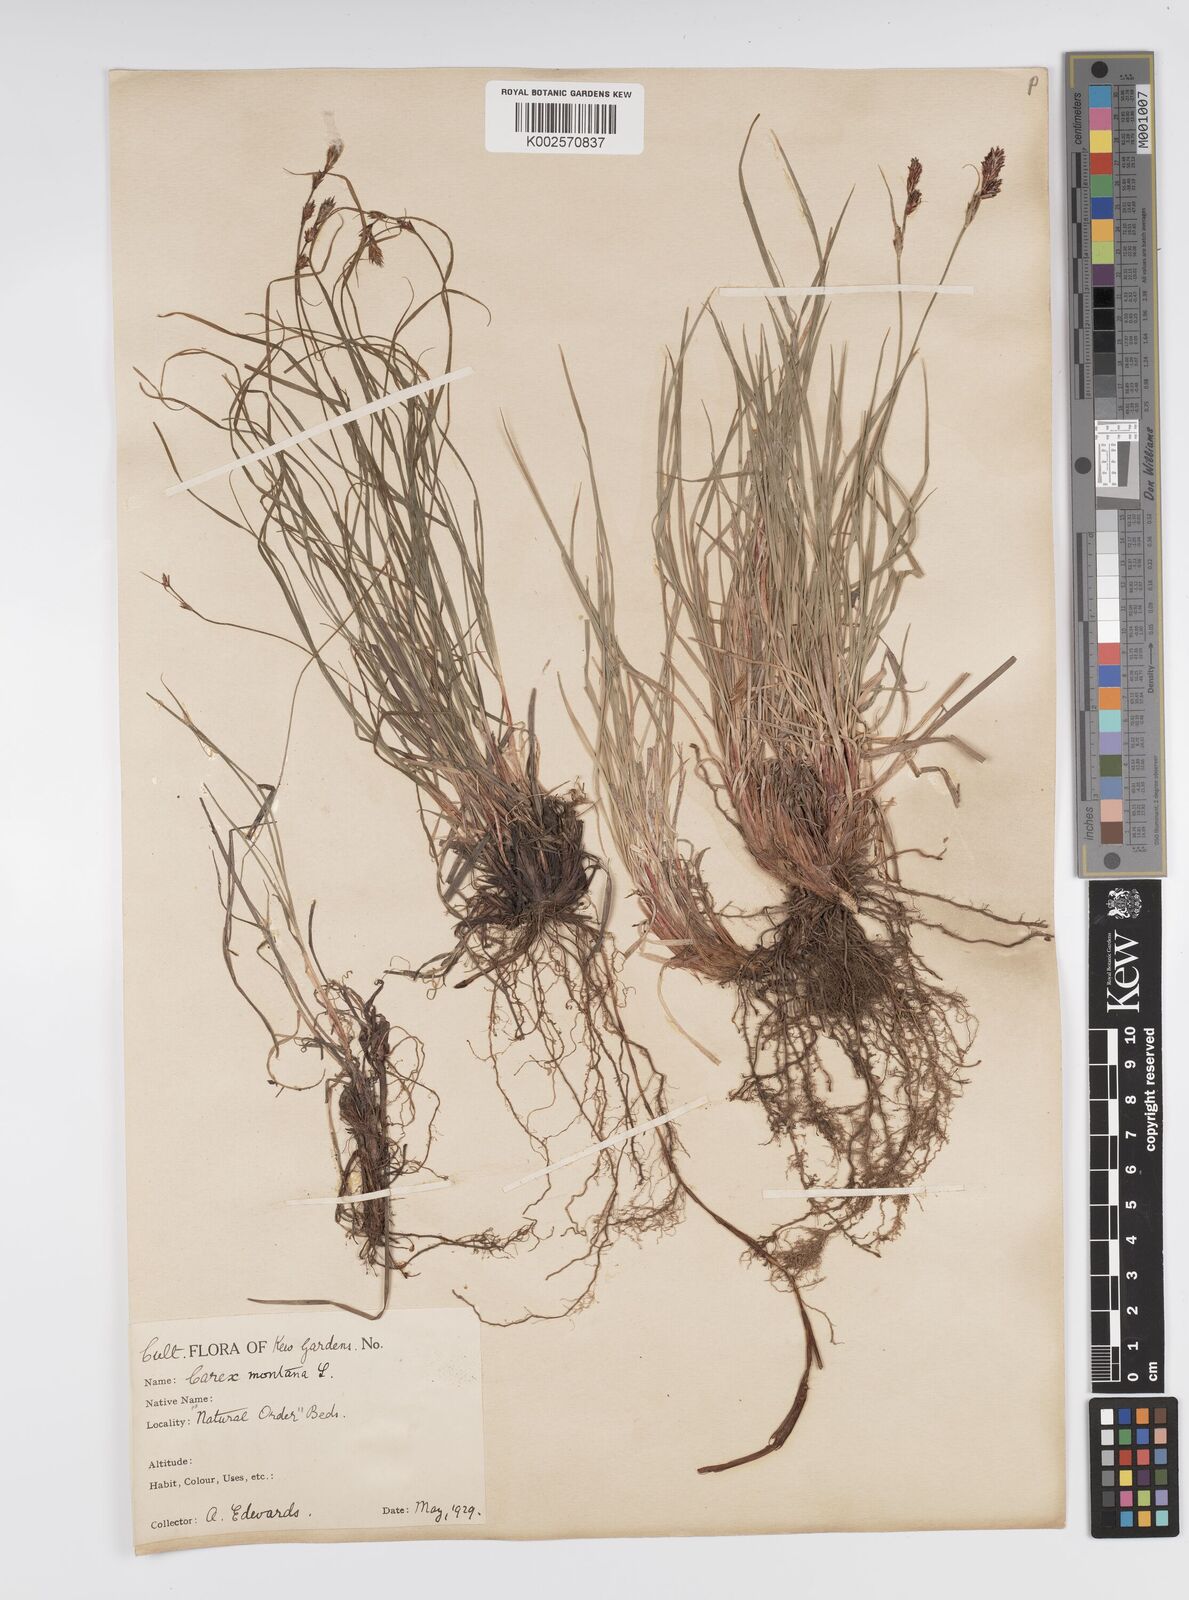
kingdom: Plantae
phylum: Tracheophyta
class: Liliopsida
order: Poales
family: Cyperaceae
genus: Carex
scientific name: Carex montana
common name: Soft-leaved sedge
